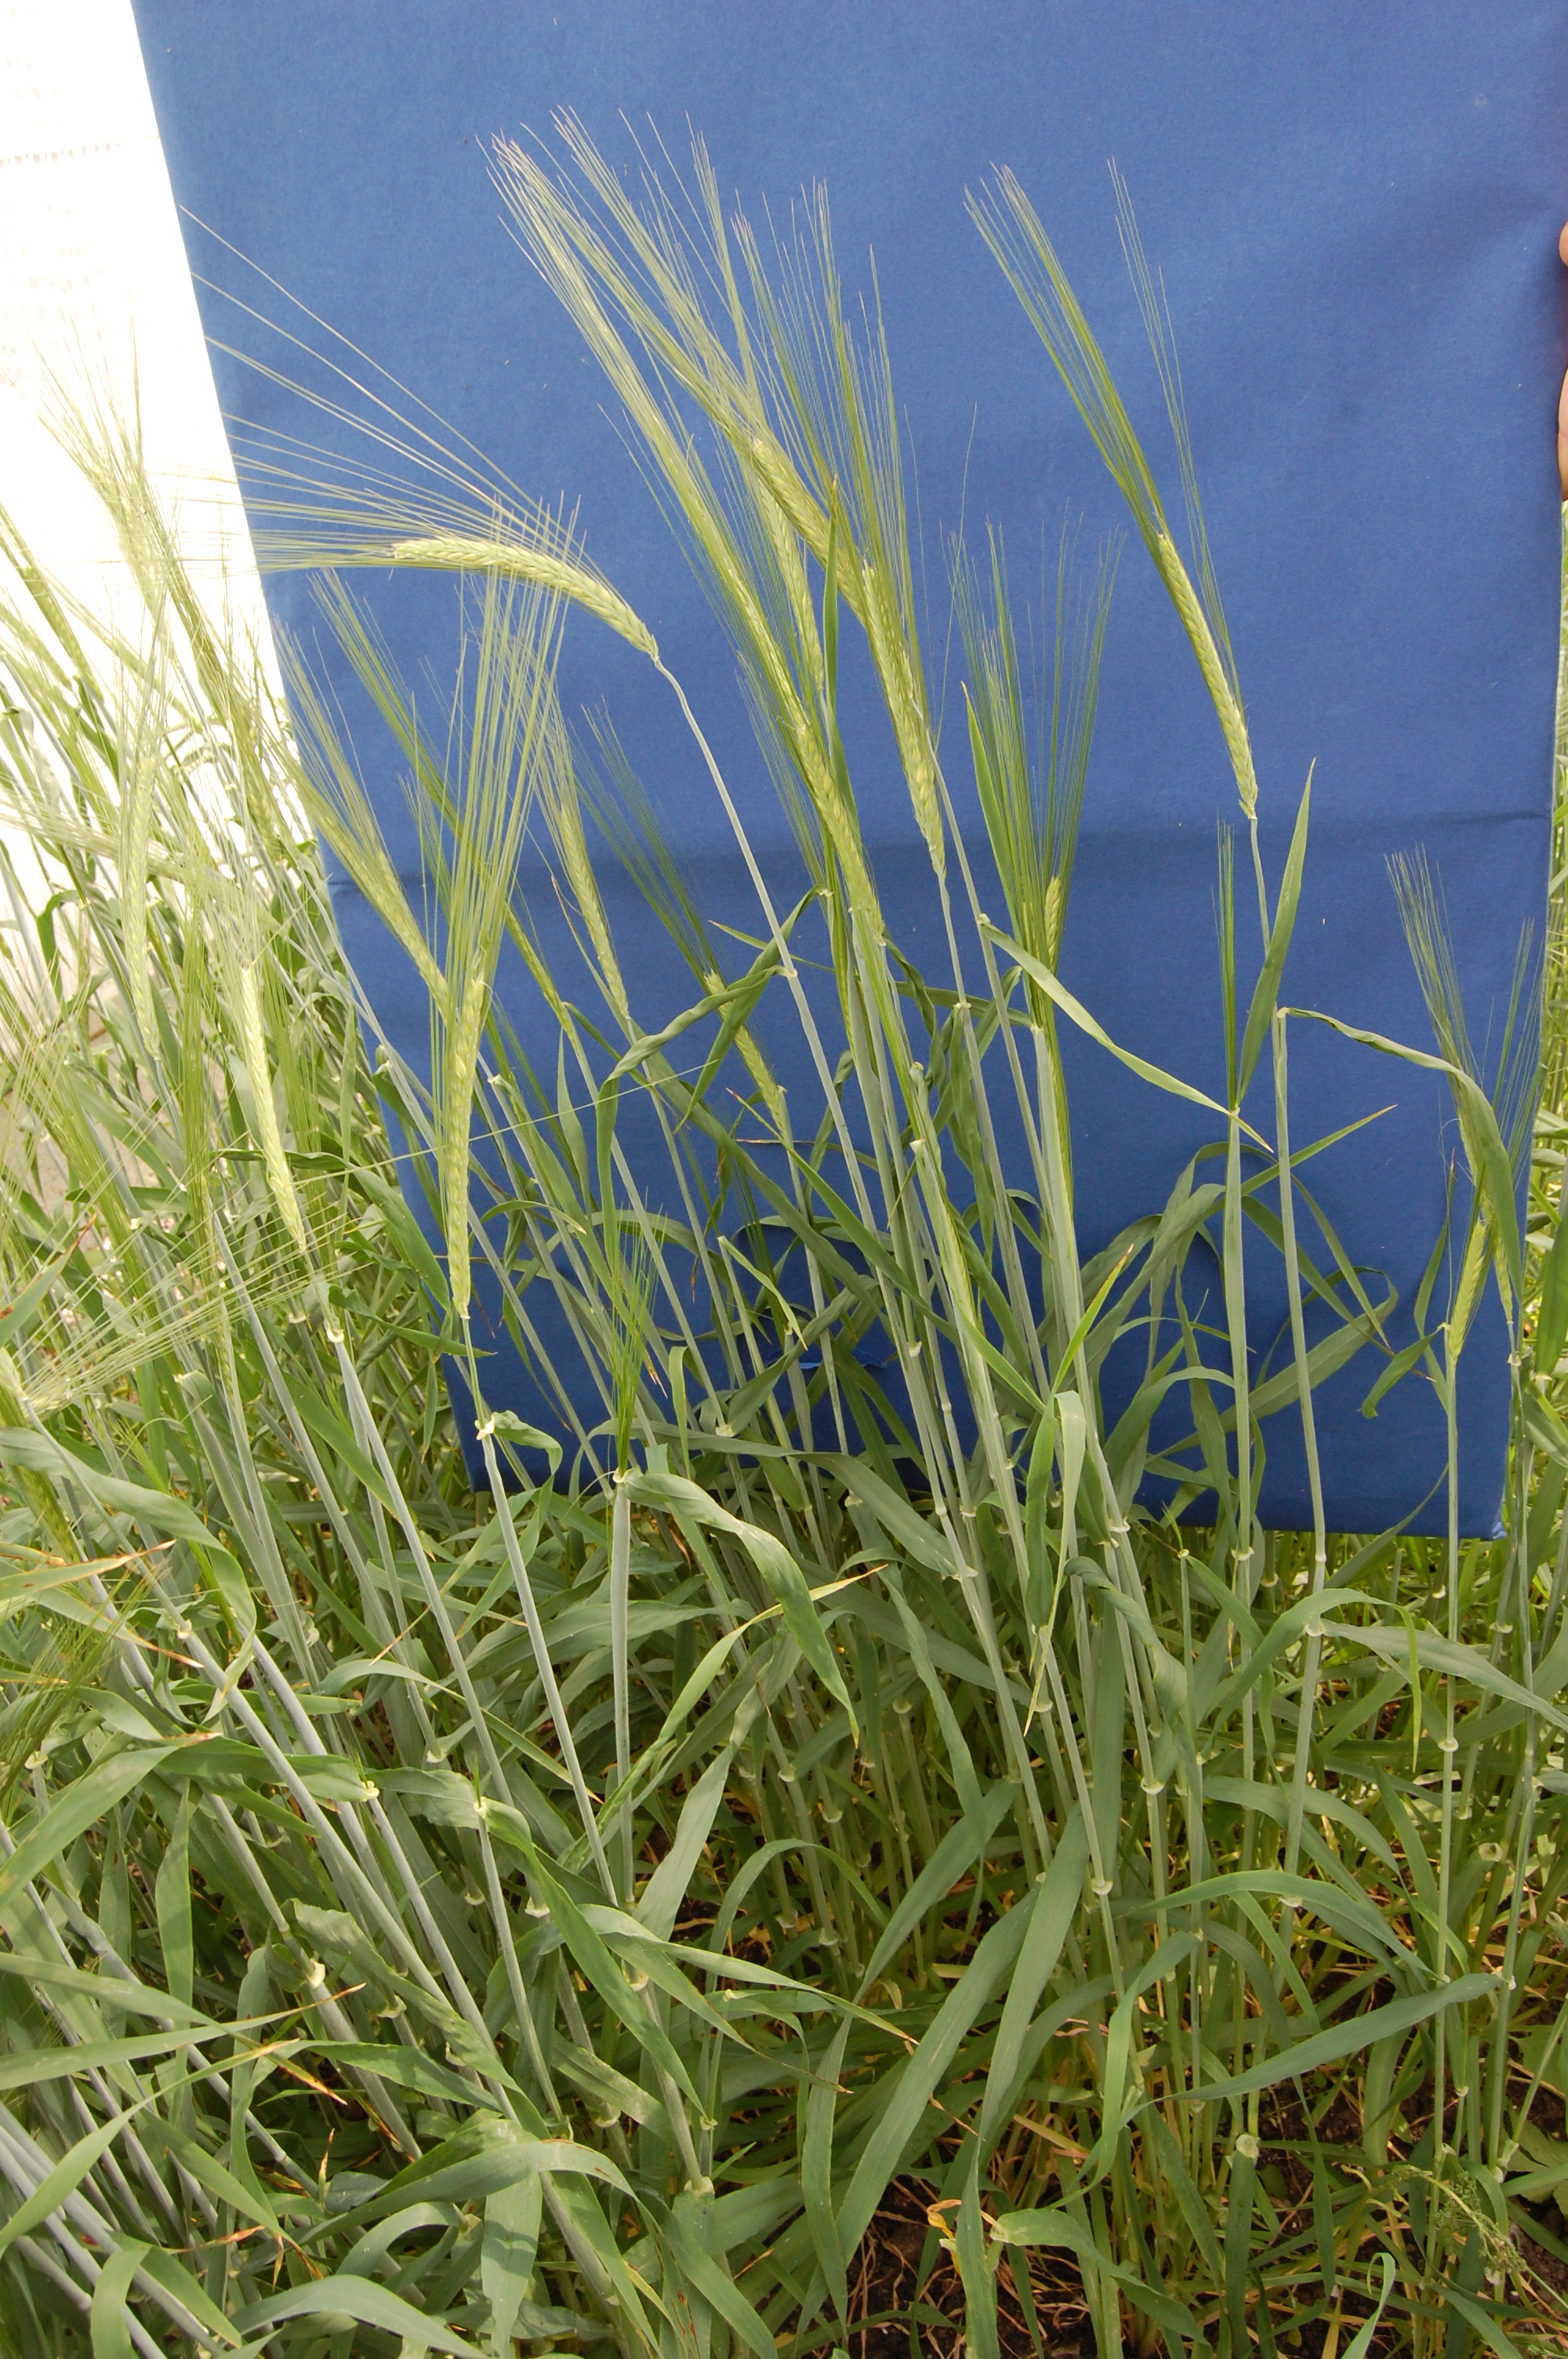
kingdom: Plantae
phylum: Tracheophyta
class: Liliopsida
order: Poales
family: Poaceae
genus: Hordeum
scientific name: Hordeum vulgare
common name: Common barley
